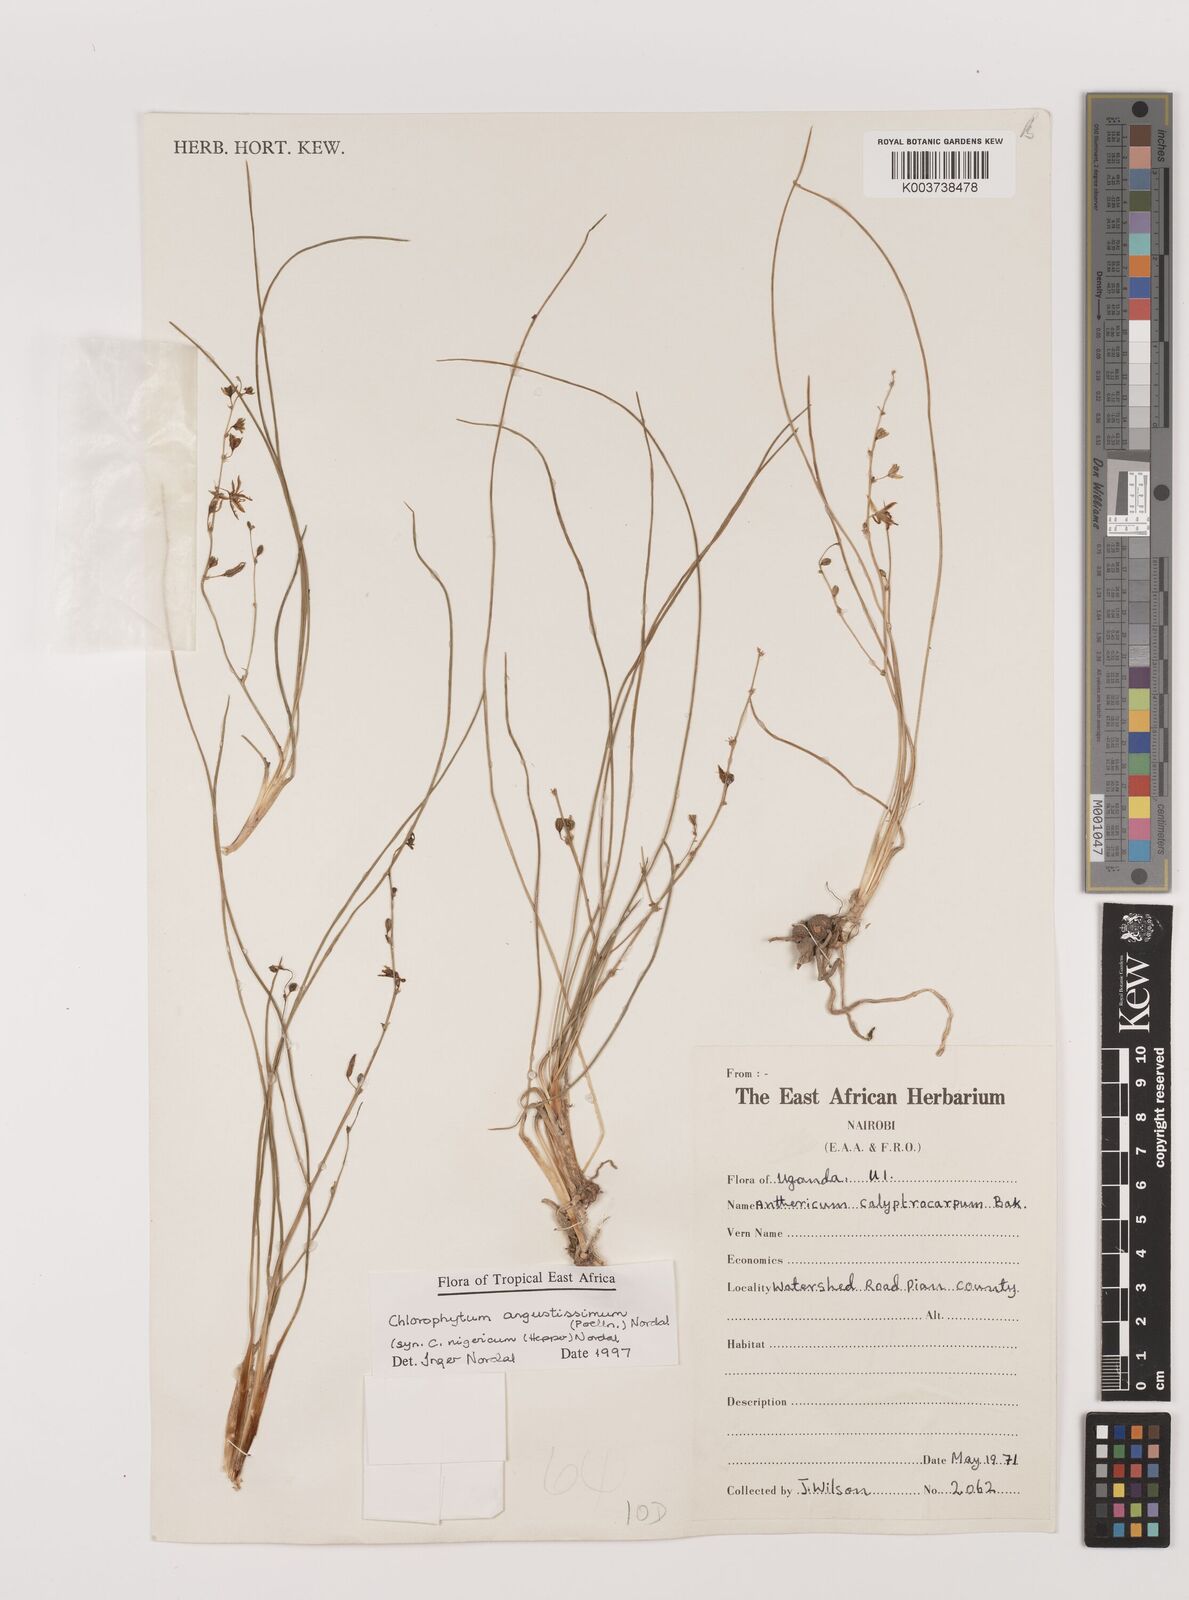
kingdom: Plantae
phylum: Tracheophyta
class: Liliopsida
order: Asparagales
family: Asparagaceae
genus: Chlorophytum
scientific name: Chlorophytum subpetiolatum
